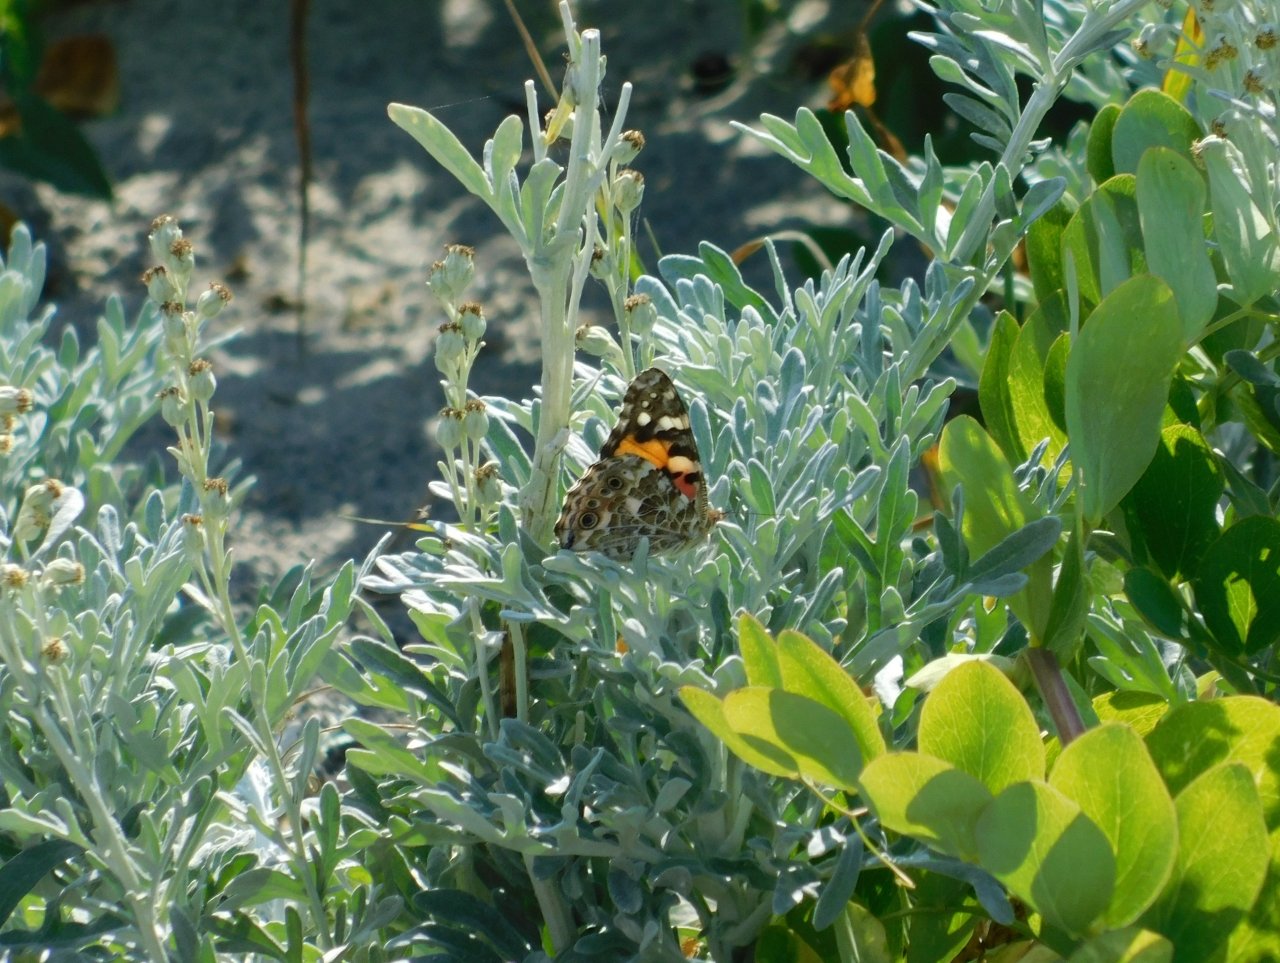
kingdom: Animalia
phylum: Arthropoda
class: Insecta
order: Lepidoptera
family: Nymphalidae
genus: Vanessa
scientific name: Vanessa cardui
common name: Painted Lady
